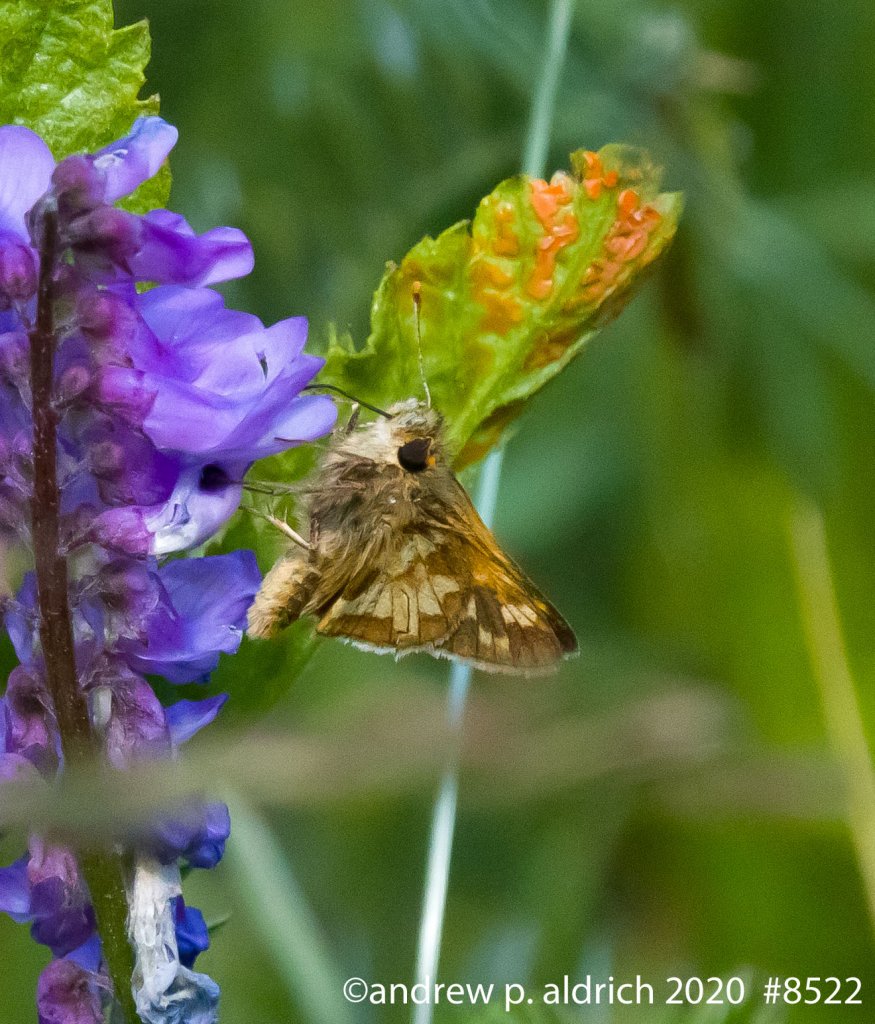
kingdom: Animalia
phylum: Arthropoda
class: Insecta
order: Lepidoptera
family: Hesperiidae
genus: Polites
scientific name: Polites coras
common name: Peck's Skipper
